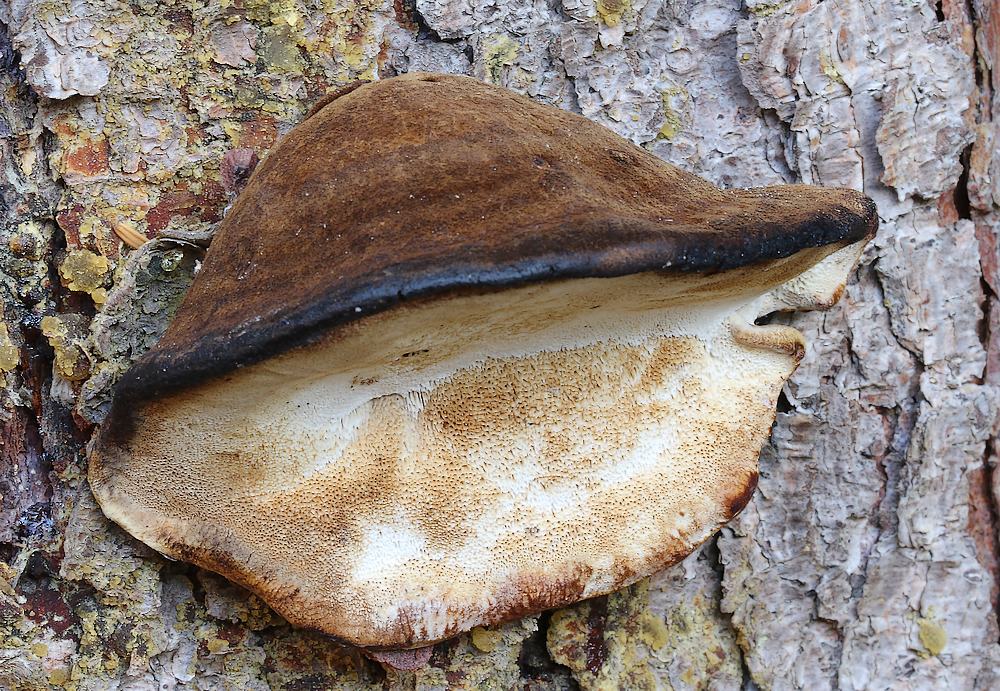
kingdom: Fungi
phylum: Basidiomycota
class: Agaricomycetes
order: Polyporales
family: Ischnodermataceae
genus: Ischnoderma
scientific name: Ischnoderma benzoinum
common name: gran-tjæreporesvamp
